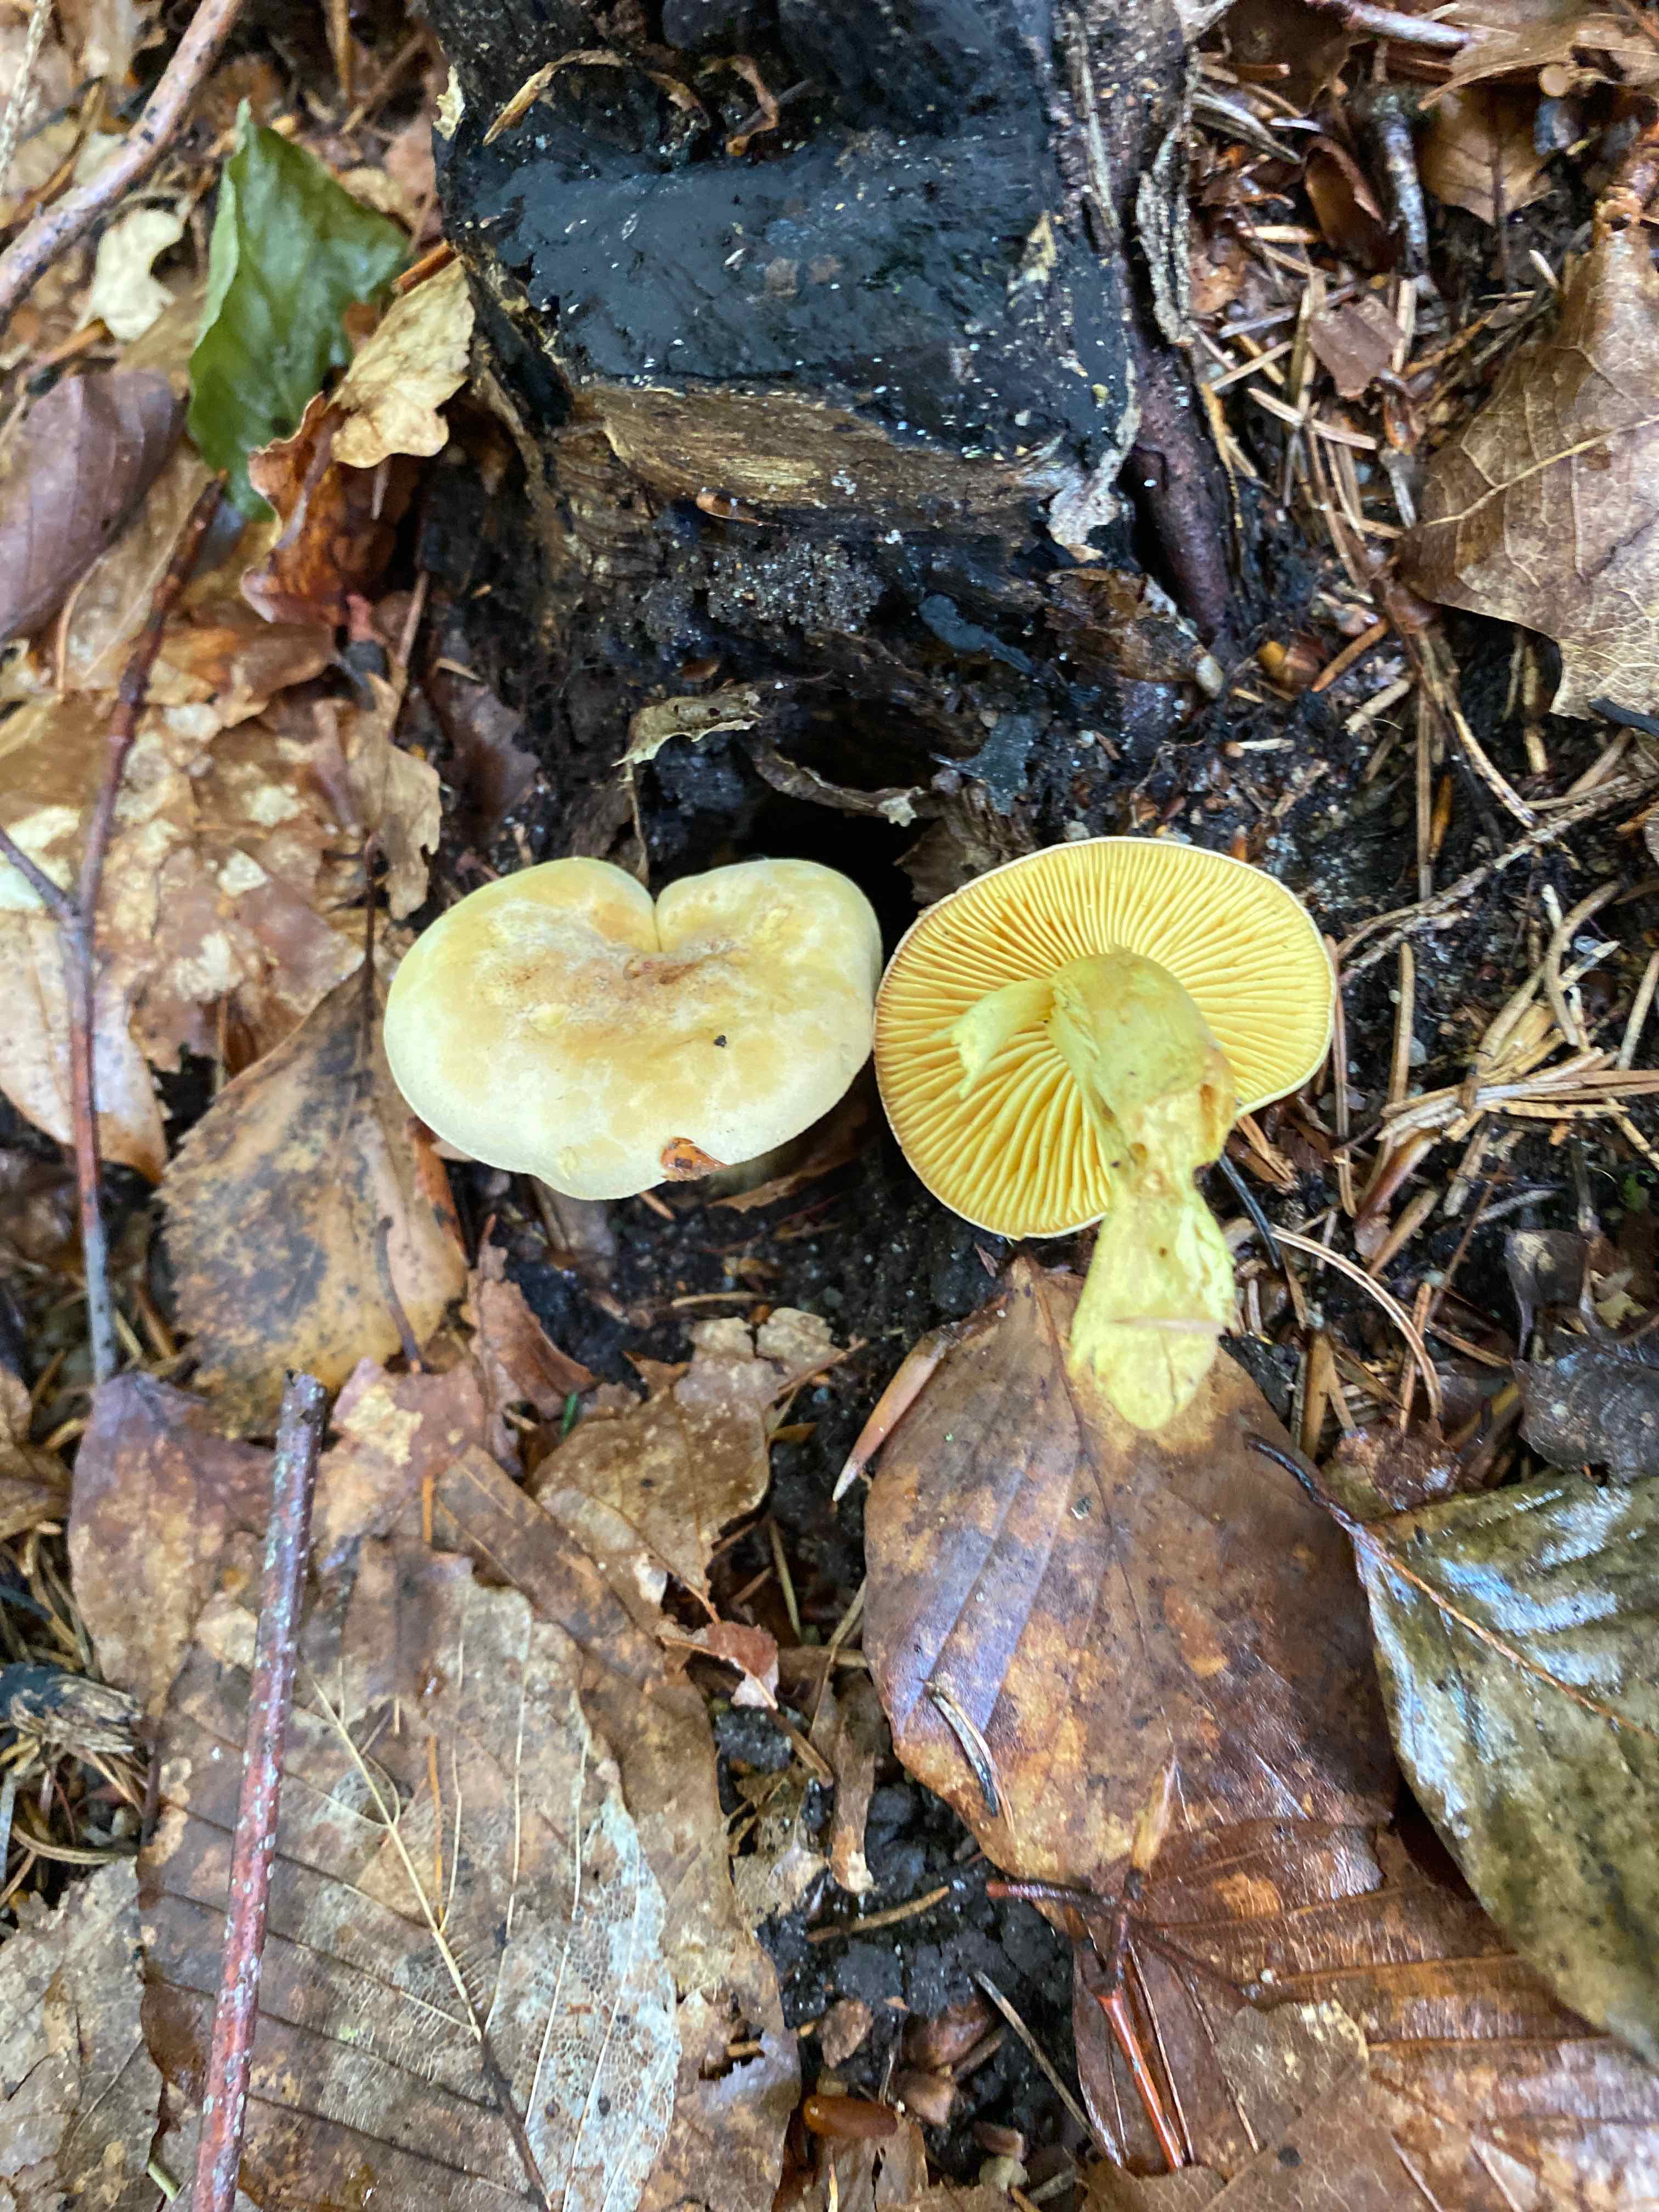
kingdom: Fungi
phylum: Basidiomycota
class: Agaricomycetes
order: Agaricales
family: Tricholomataceae
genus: Tricholoma
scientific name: Tricholoma sulphureum
